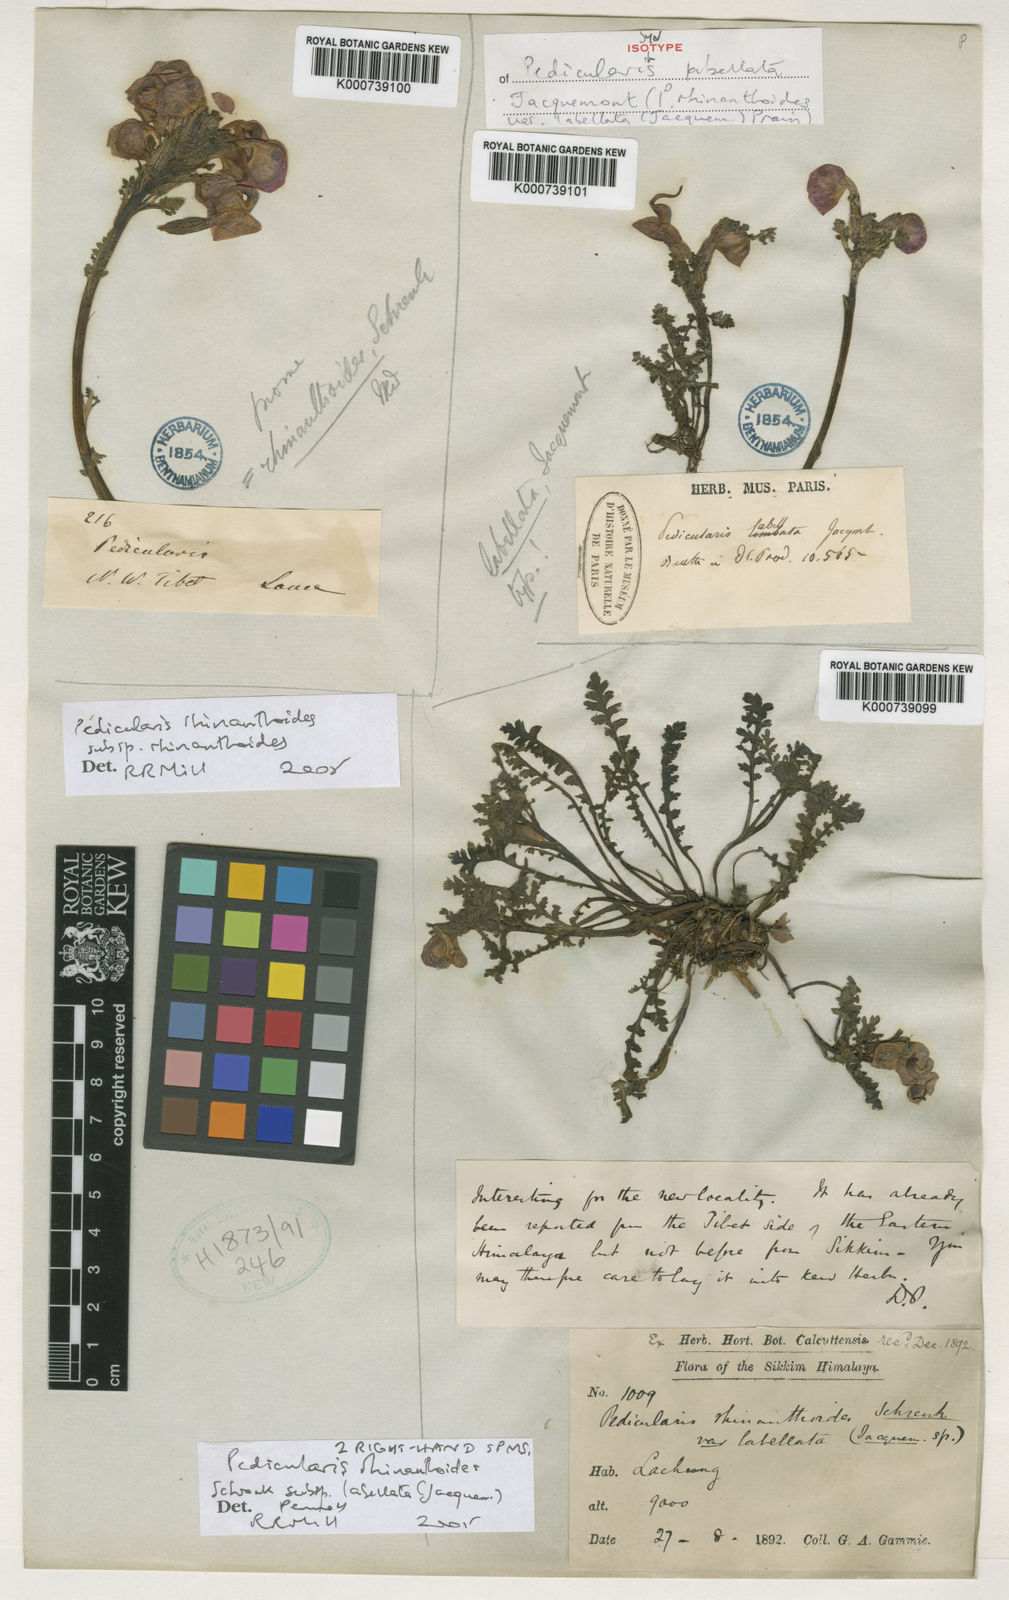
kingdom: Plantae
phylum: Tracheophyta
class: Magnoliopsida
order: Lamiales
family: Orobanchaceae
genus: Pedicularis
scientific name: Pedicularis rhinanthoides
